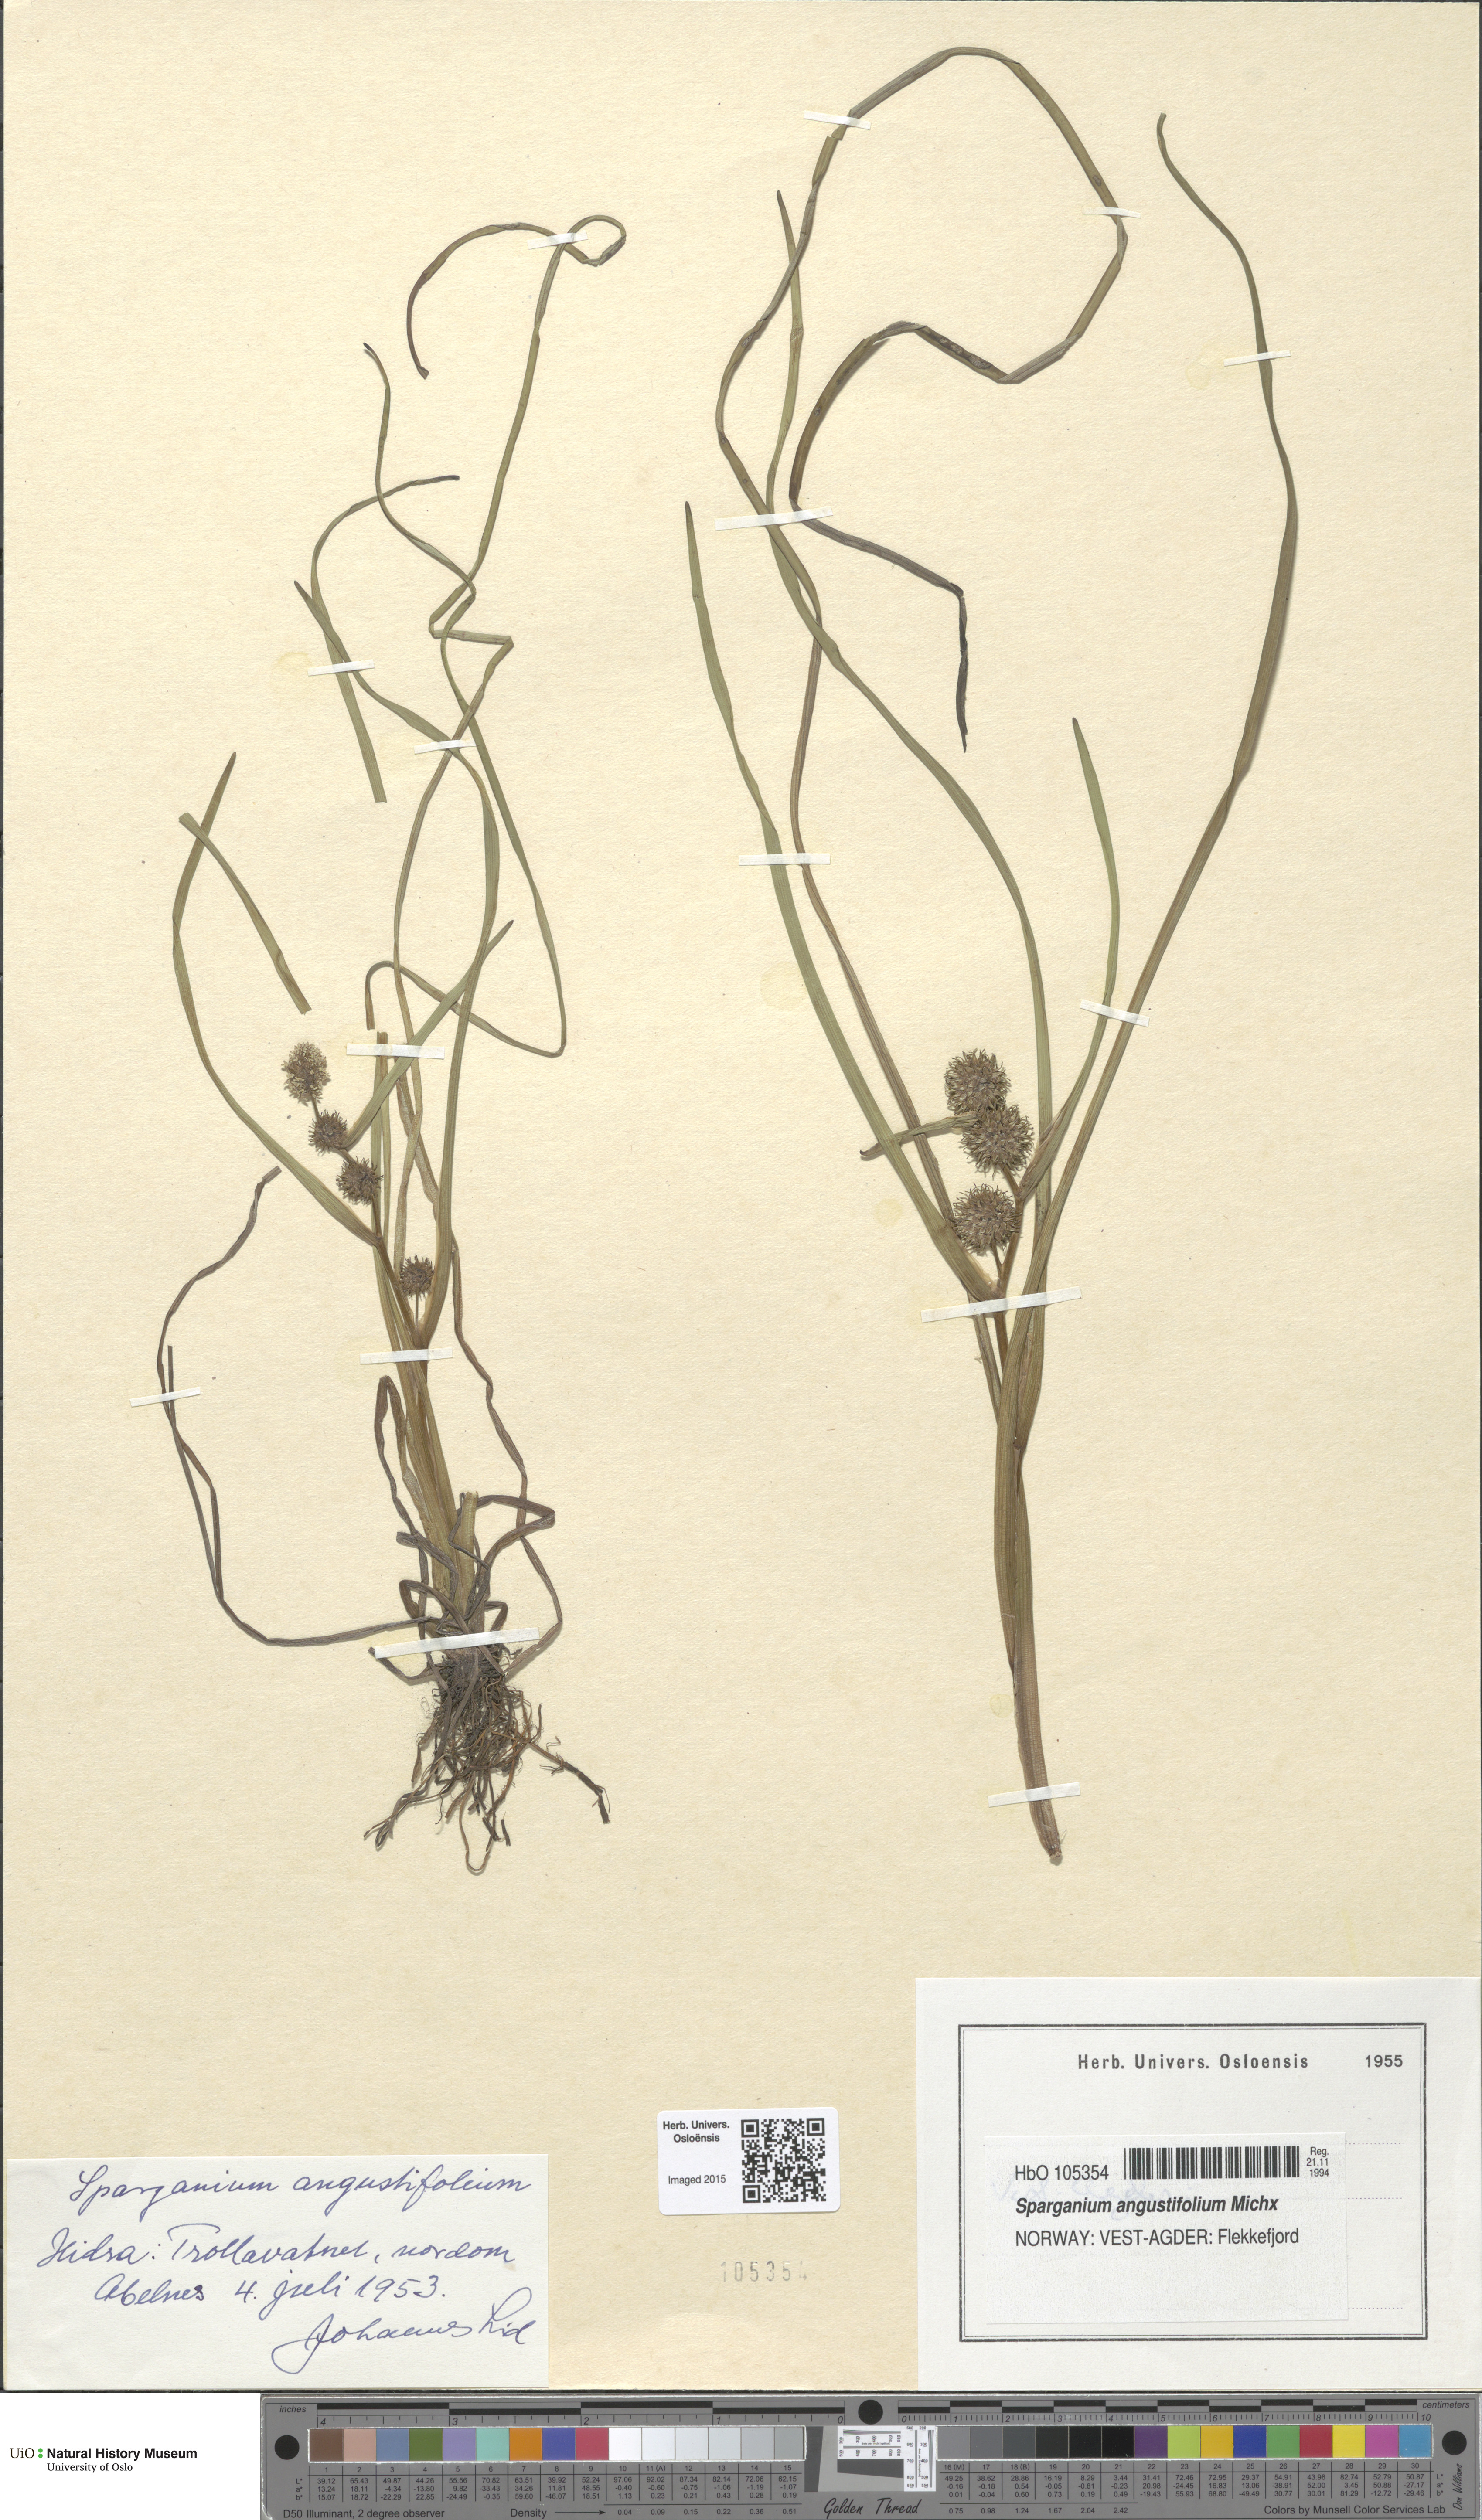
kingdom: Plantae
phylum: Tracheophyta
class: Liliopsida
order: Poales
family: Typhaceae
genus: Sparganium
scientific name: Sparganium angustifolium
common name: Floating bur-reed
